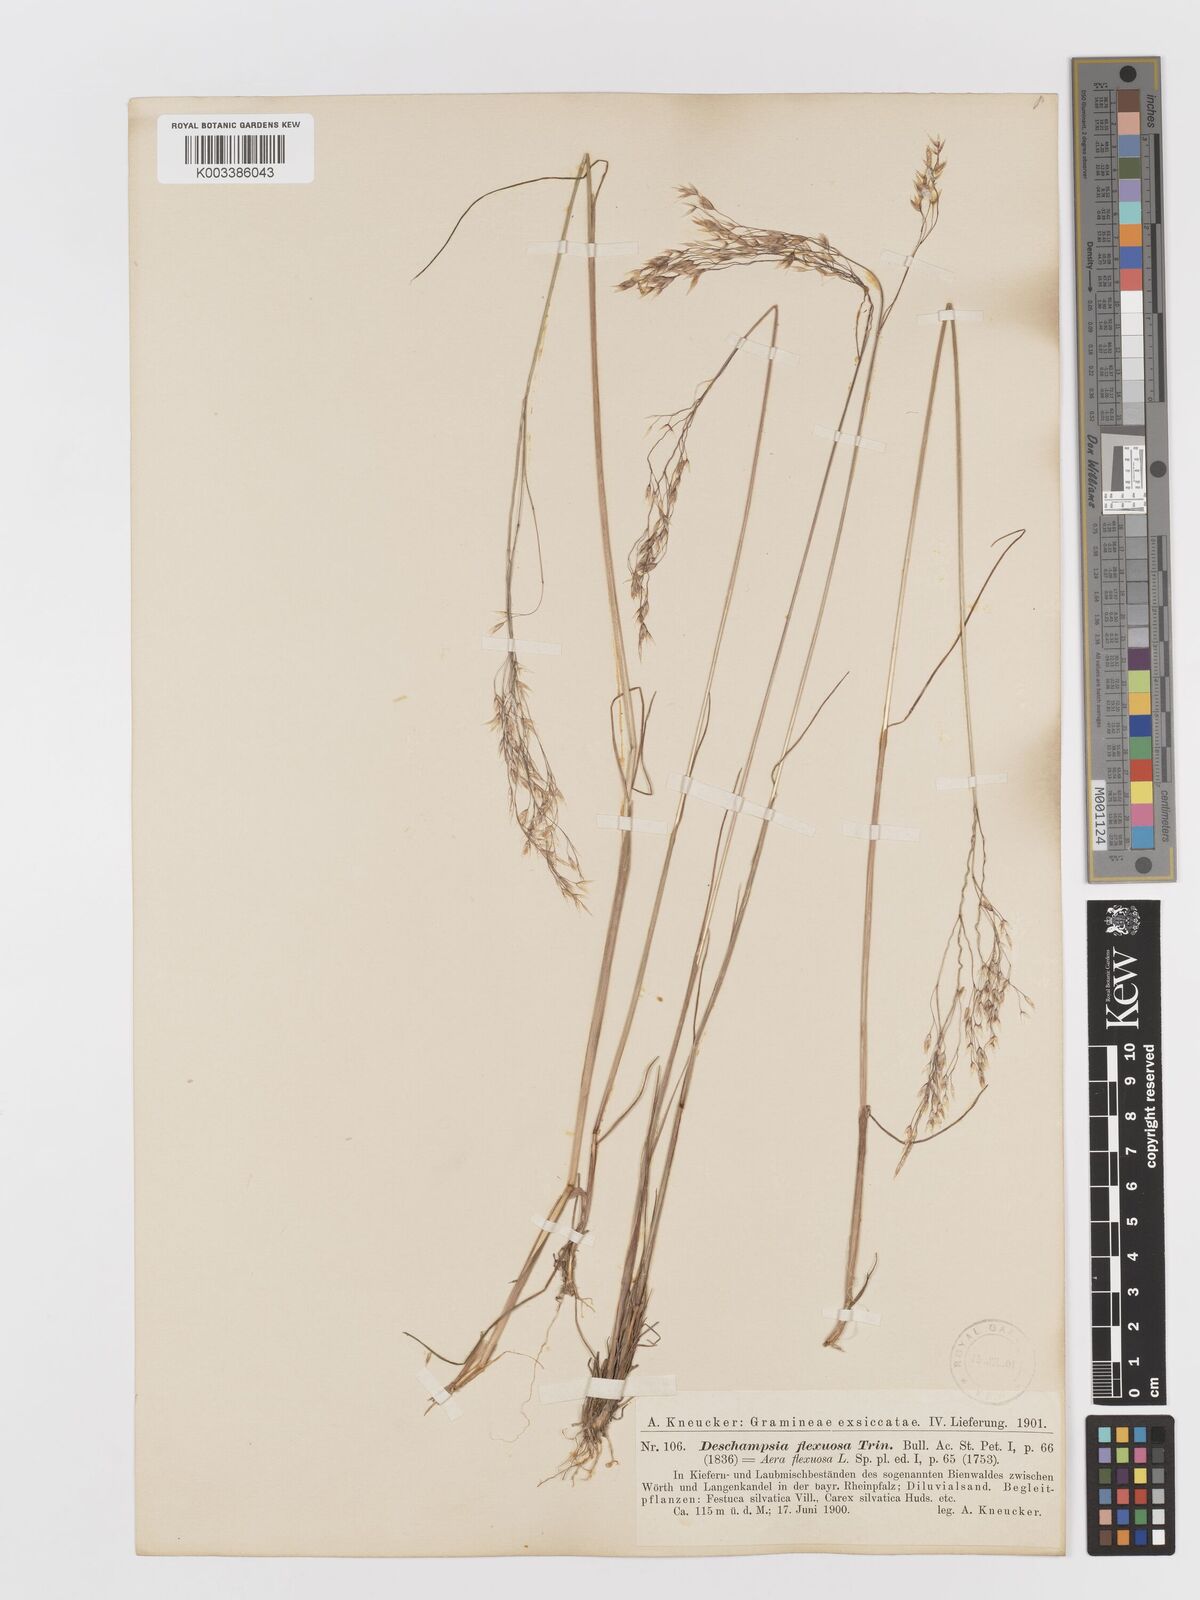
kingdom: Plantae
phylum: Tracheophyta
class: Liliopsida
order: Poales
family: Poaceae
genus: Avenella
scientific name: Avenella flexuosa
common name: Wavy hairgrass
